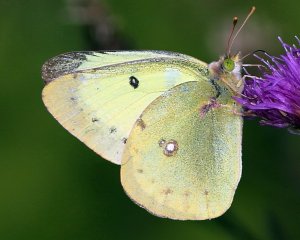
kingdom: Animalia
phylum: Arthropoda
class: Insecta
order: Lepidoptera
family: Pieridae
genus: Colias
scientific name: Colias philodice
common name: Clouded Sulphur
